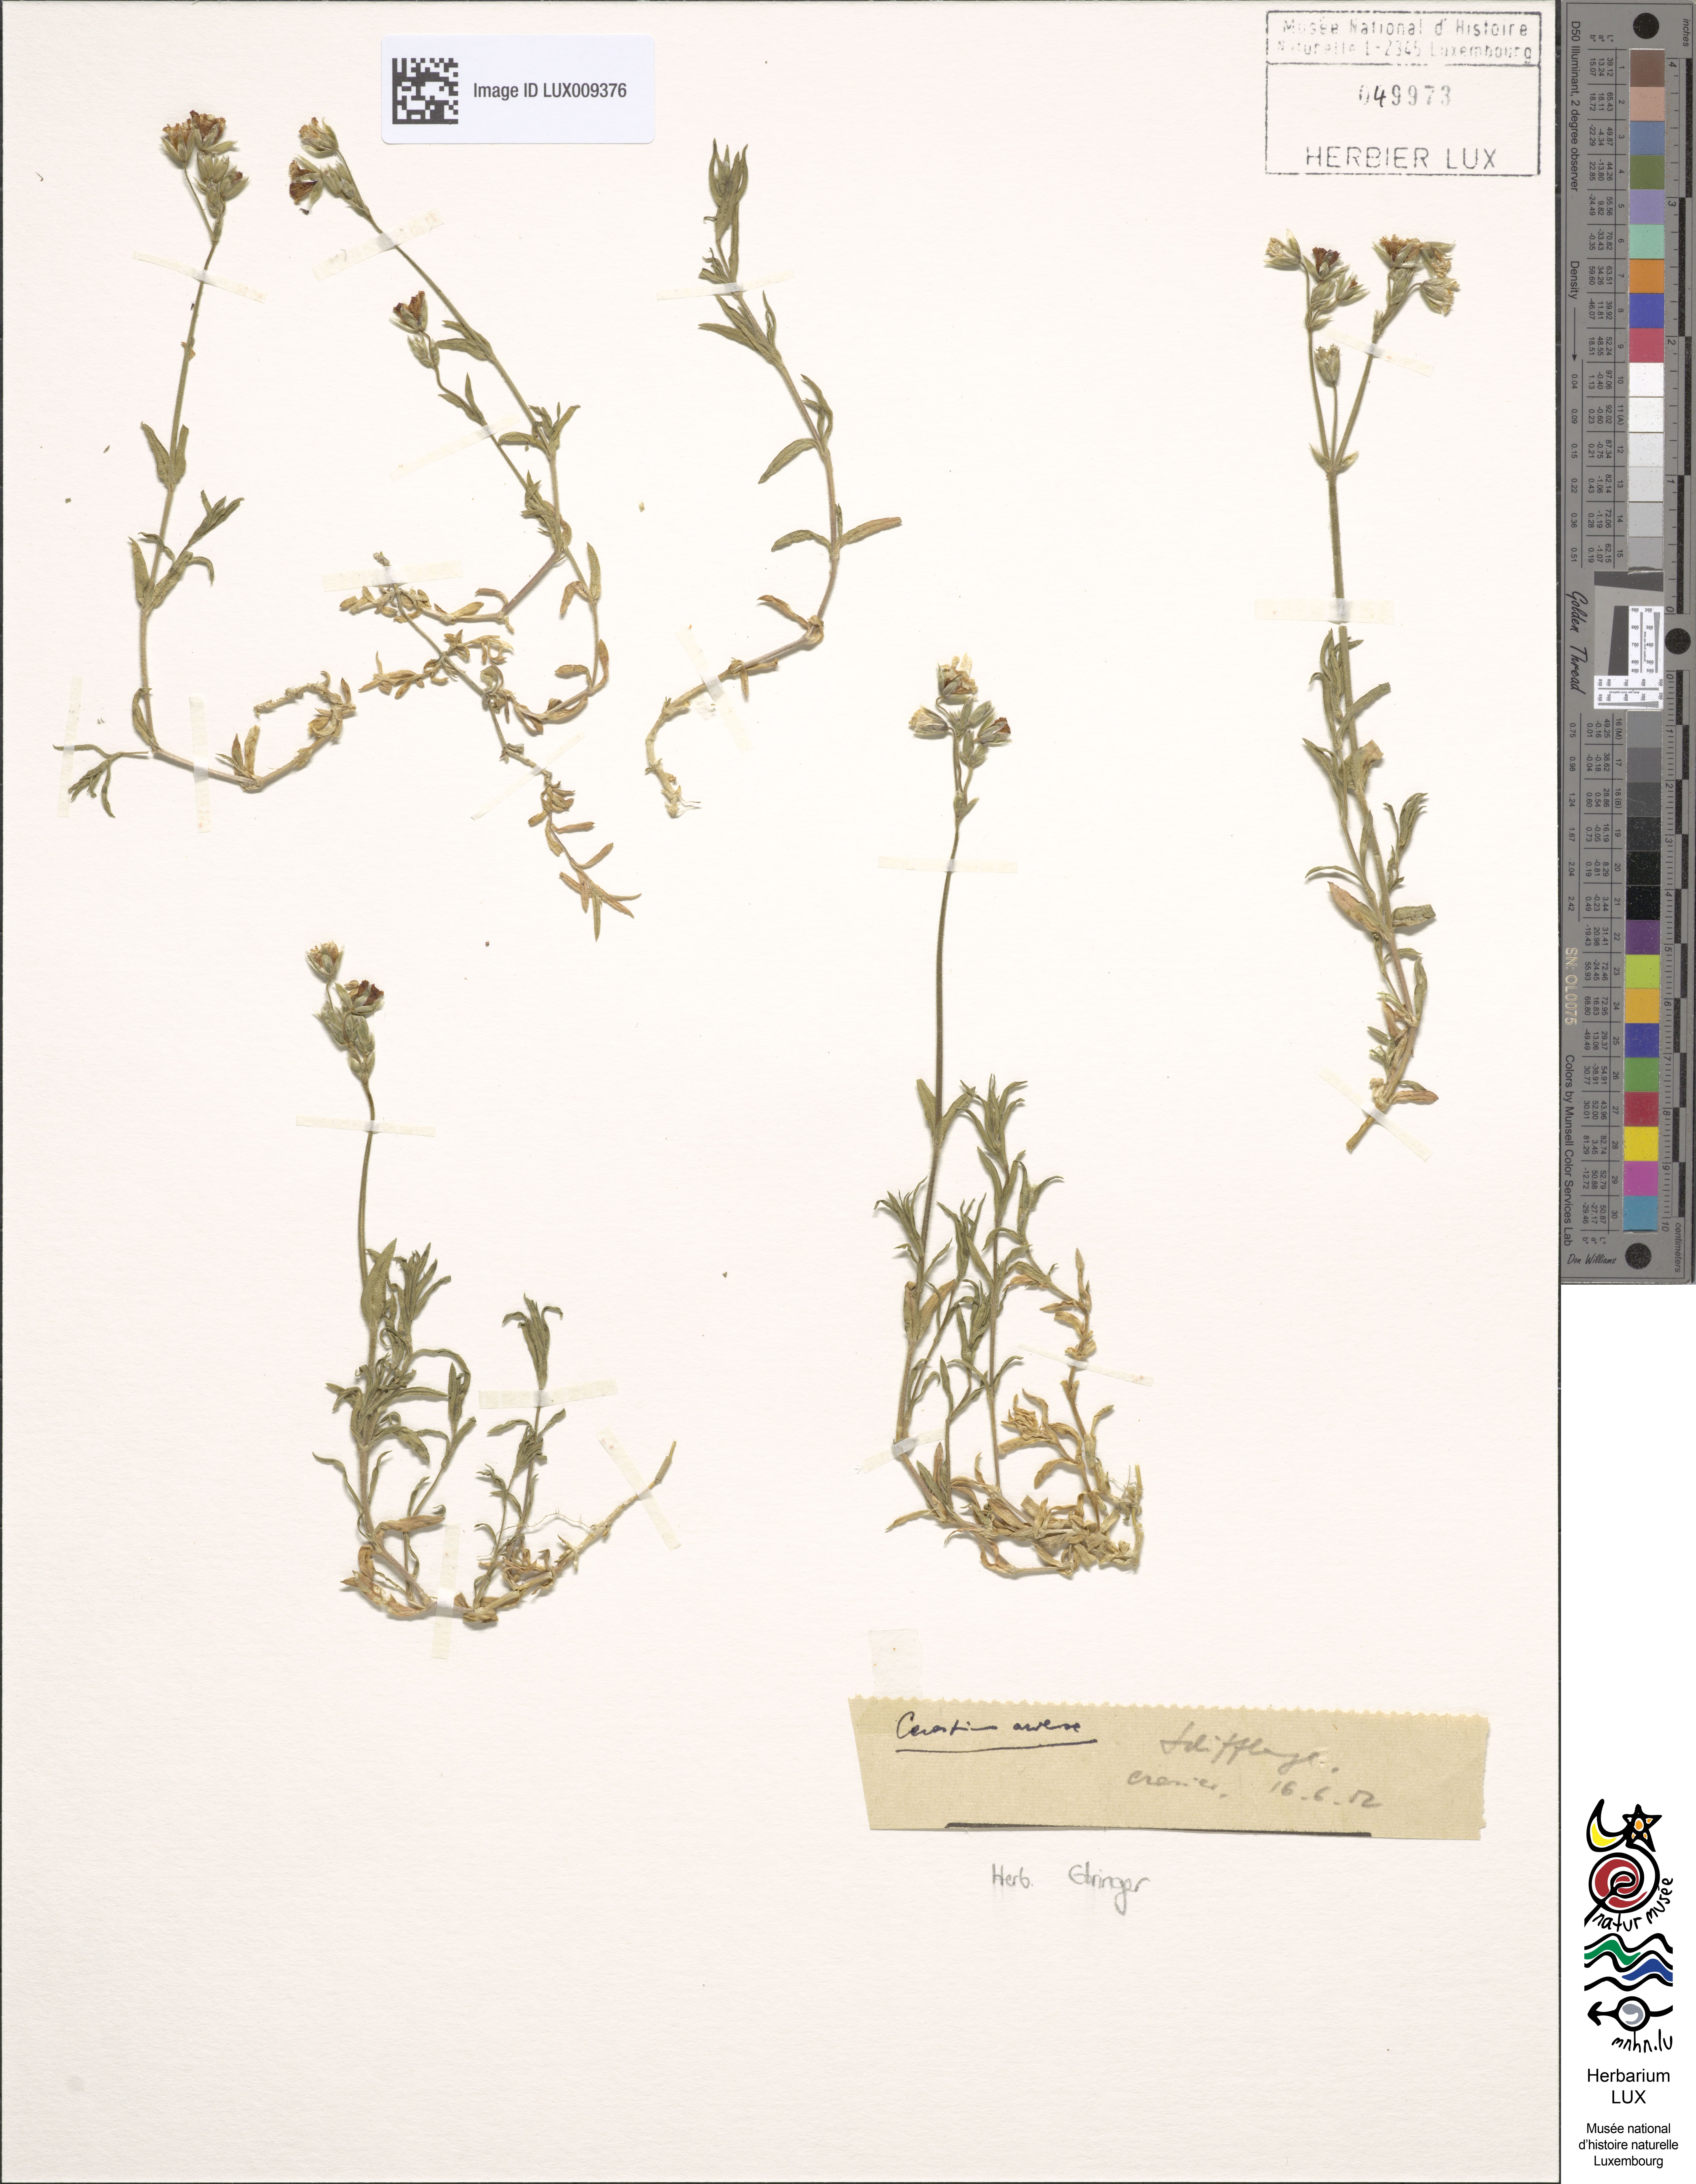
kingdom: Plantae
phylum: Tracheophyta
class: Magnoliopsida
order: Caryophyllales
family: Caryophyllaceae
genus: Cerastium
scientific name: Cerastium arvense
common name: Field mouse-ear
